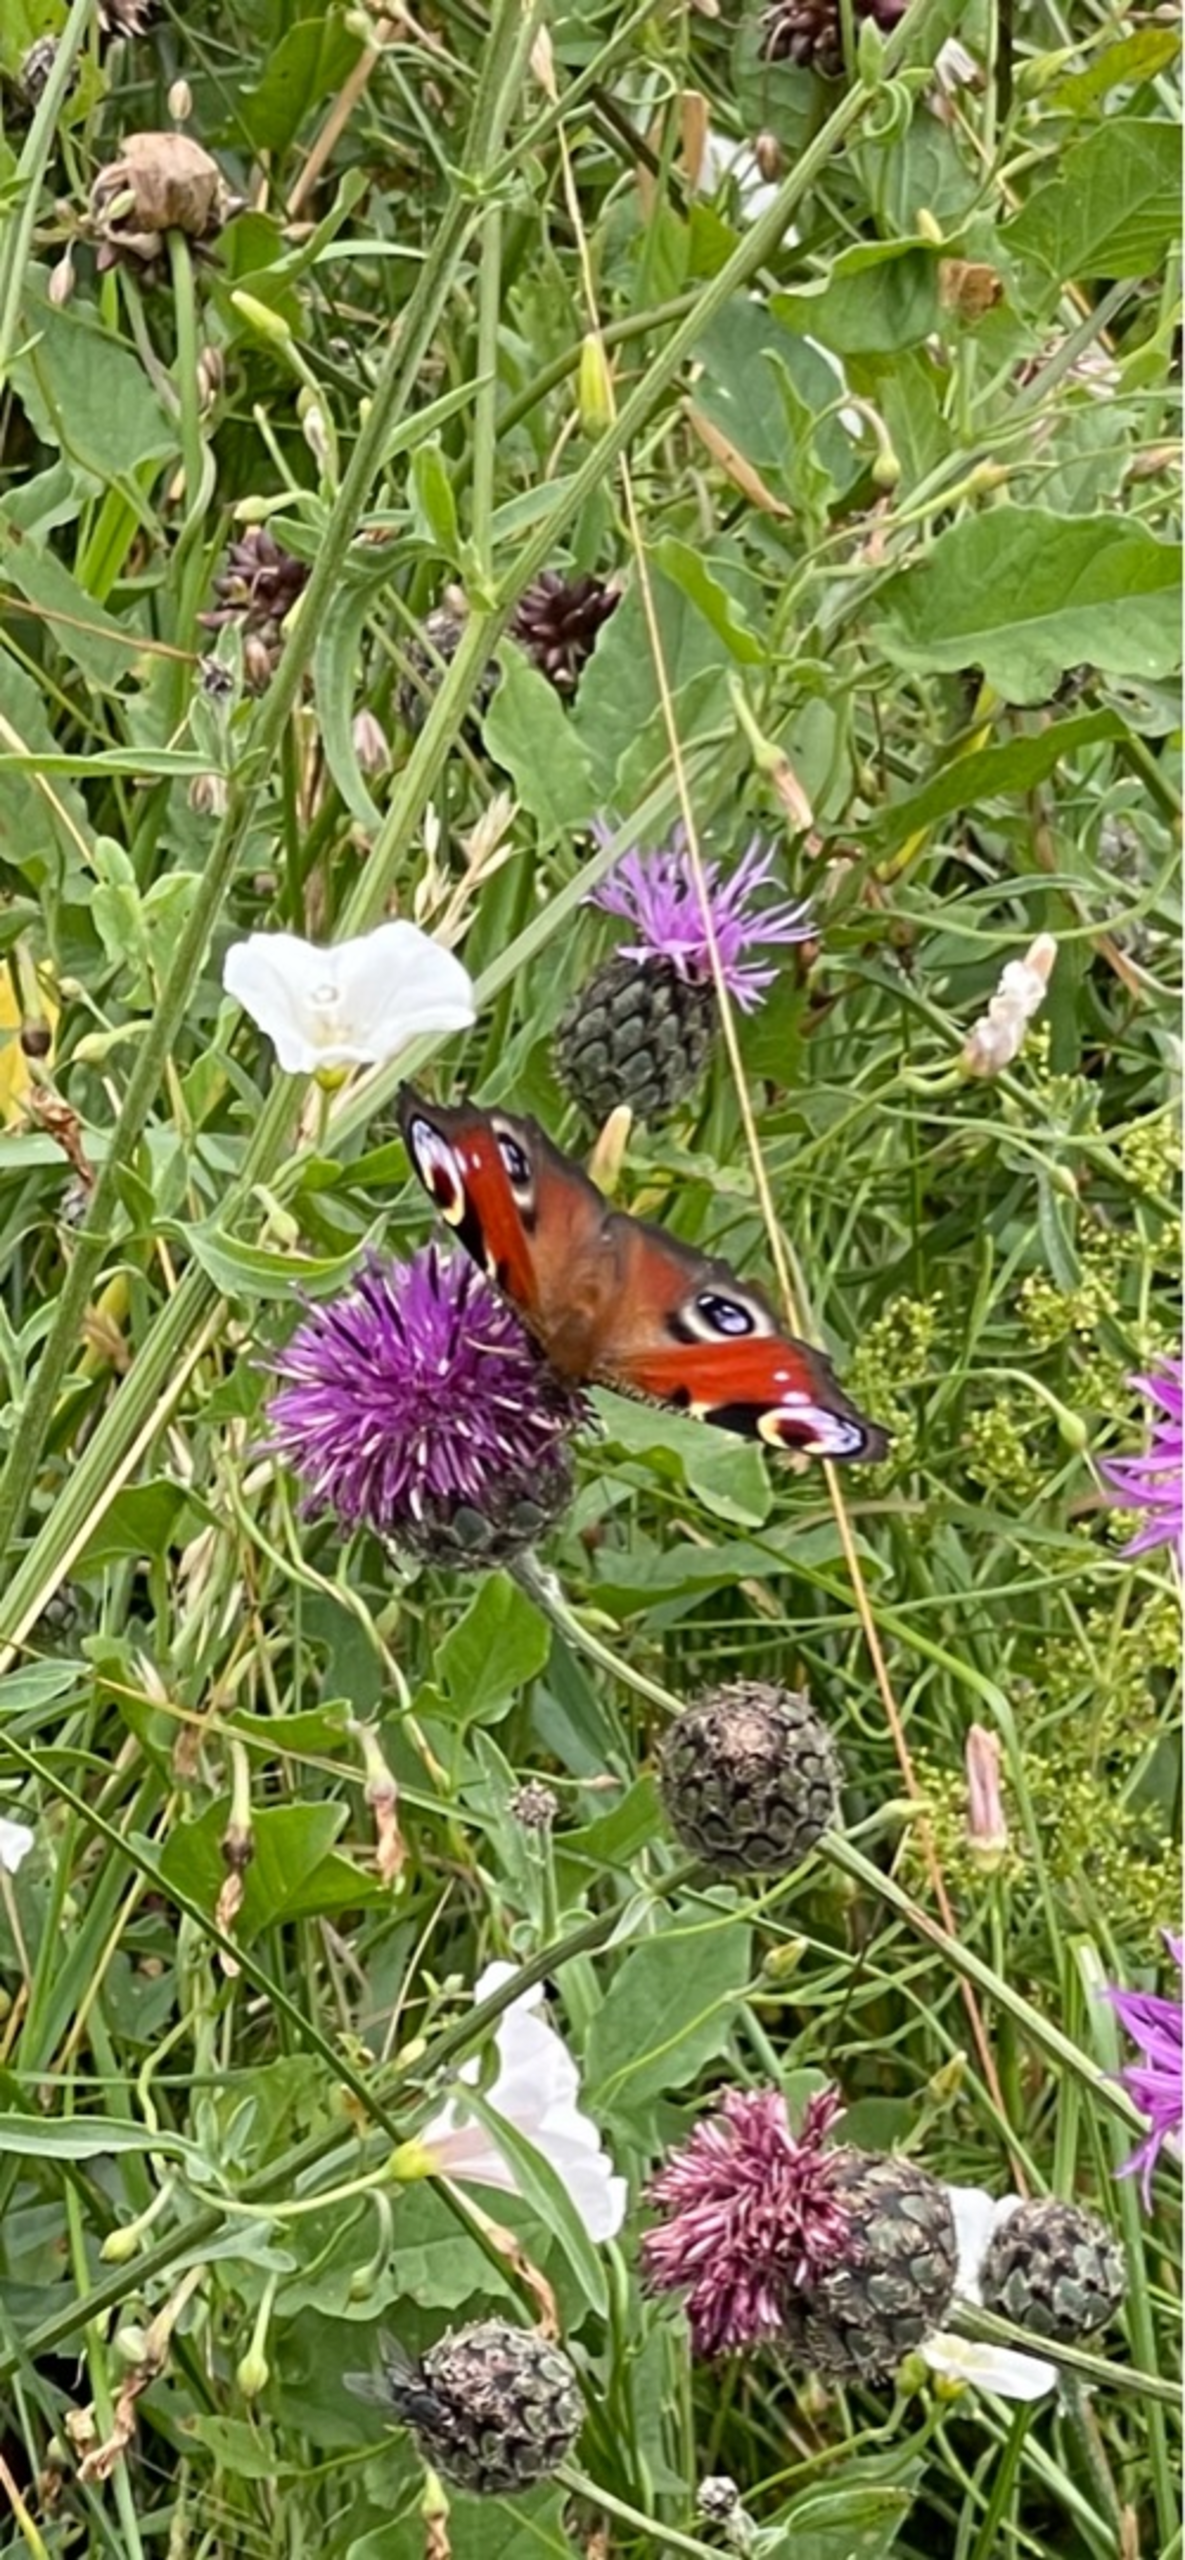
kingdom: Animalia
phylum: Arthropoda
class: Insecta
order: Lepidoptera
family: Nymphalidae
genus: Aglais
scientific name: Aglais io
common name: Dagpåfugleøje
